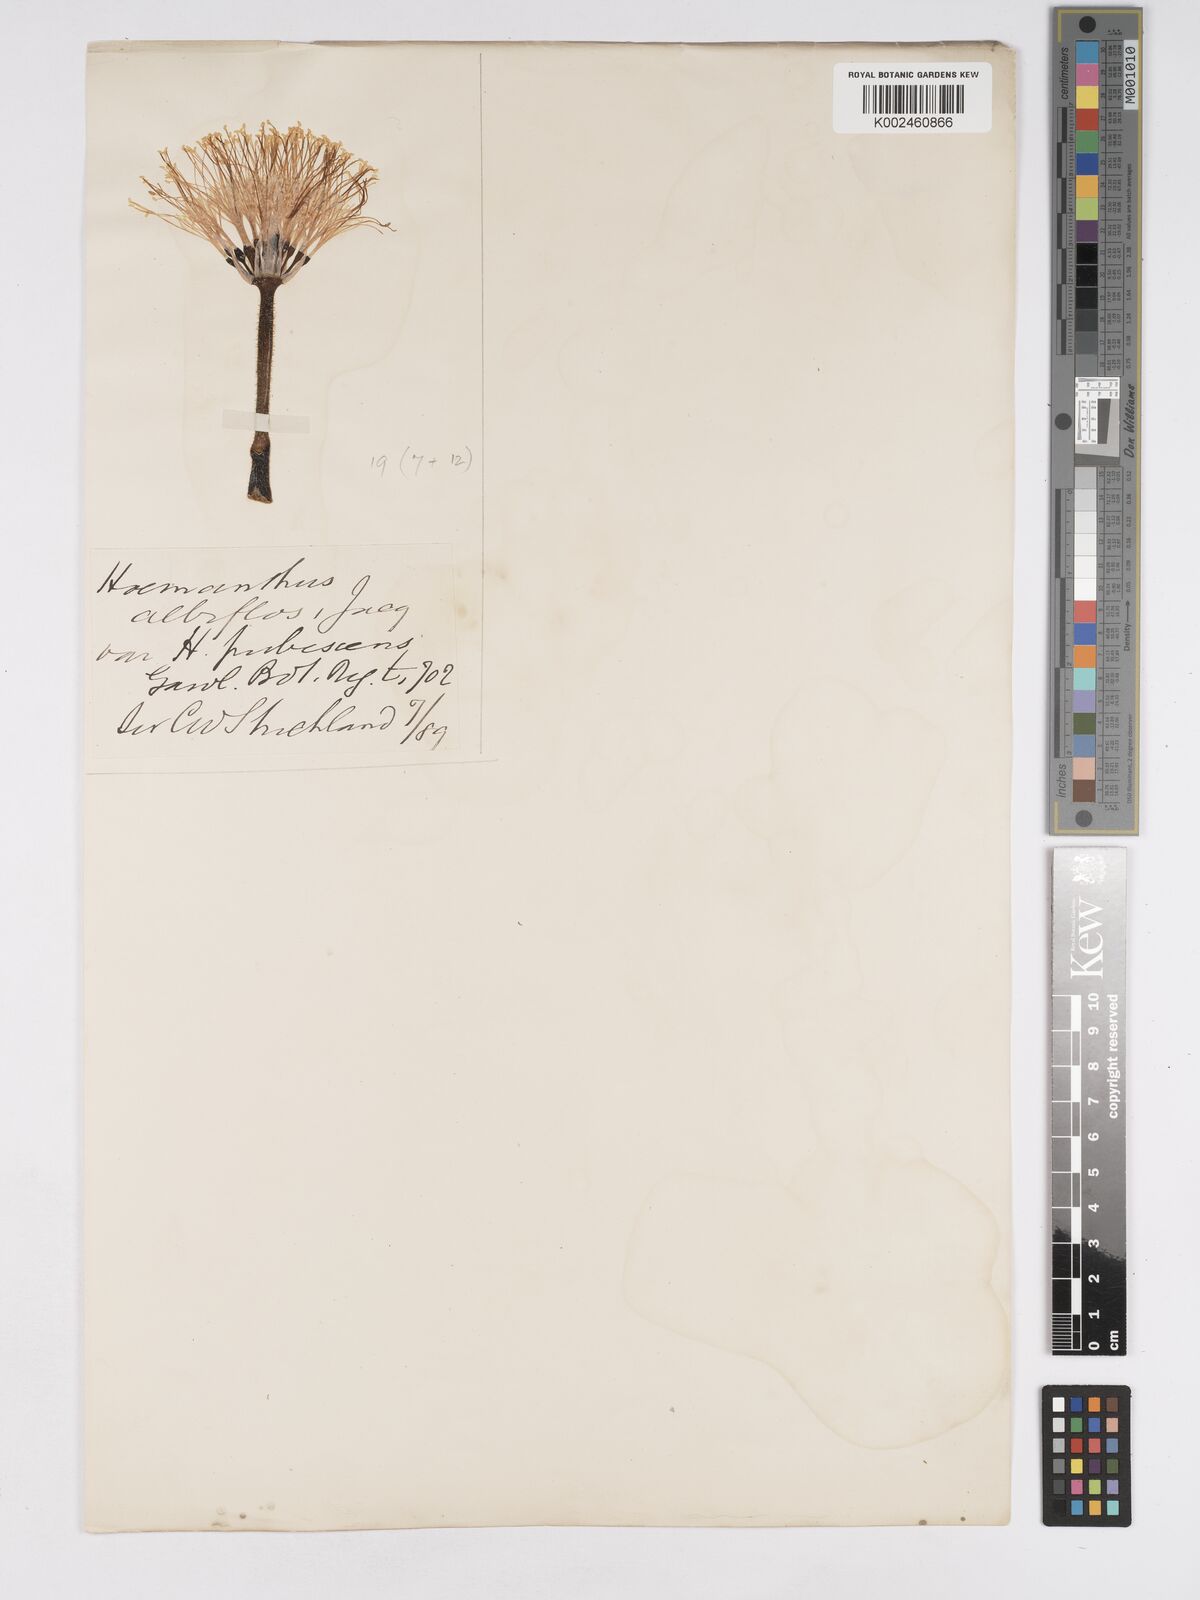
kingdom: Plantae
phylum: Tracheophyta
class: Liliopsida
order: Asparagales
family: Amaryllidaceae
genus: Haemanthus
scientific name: Haemanthus humilis
